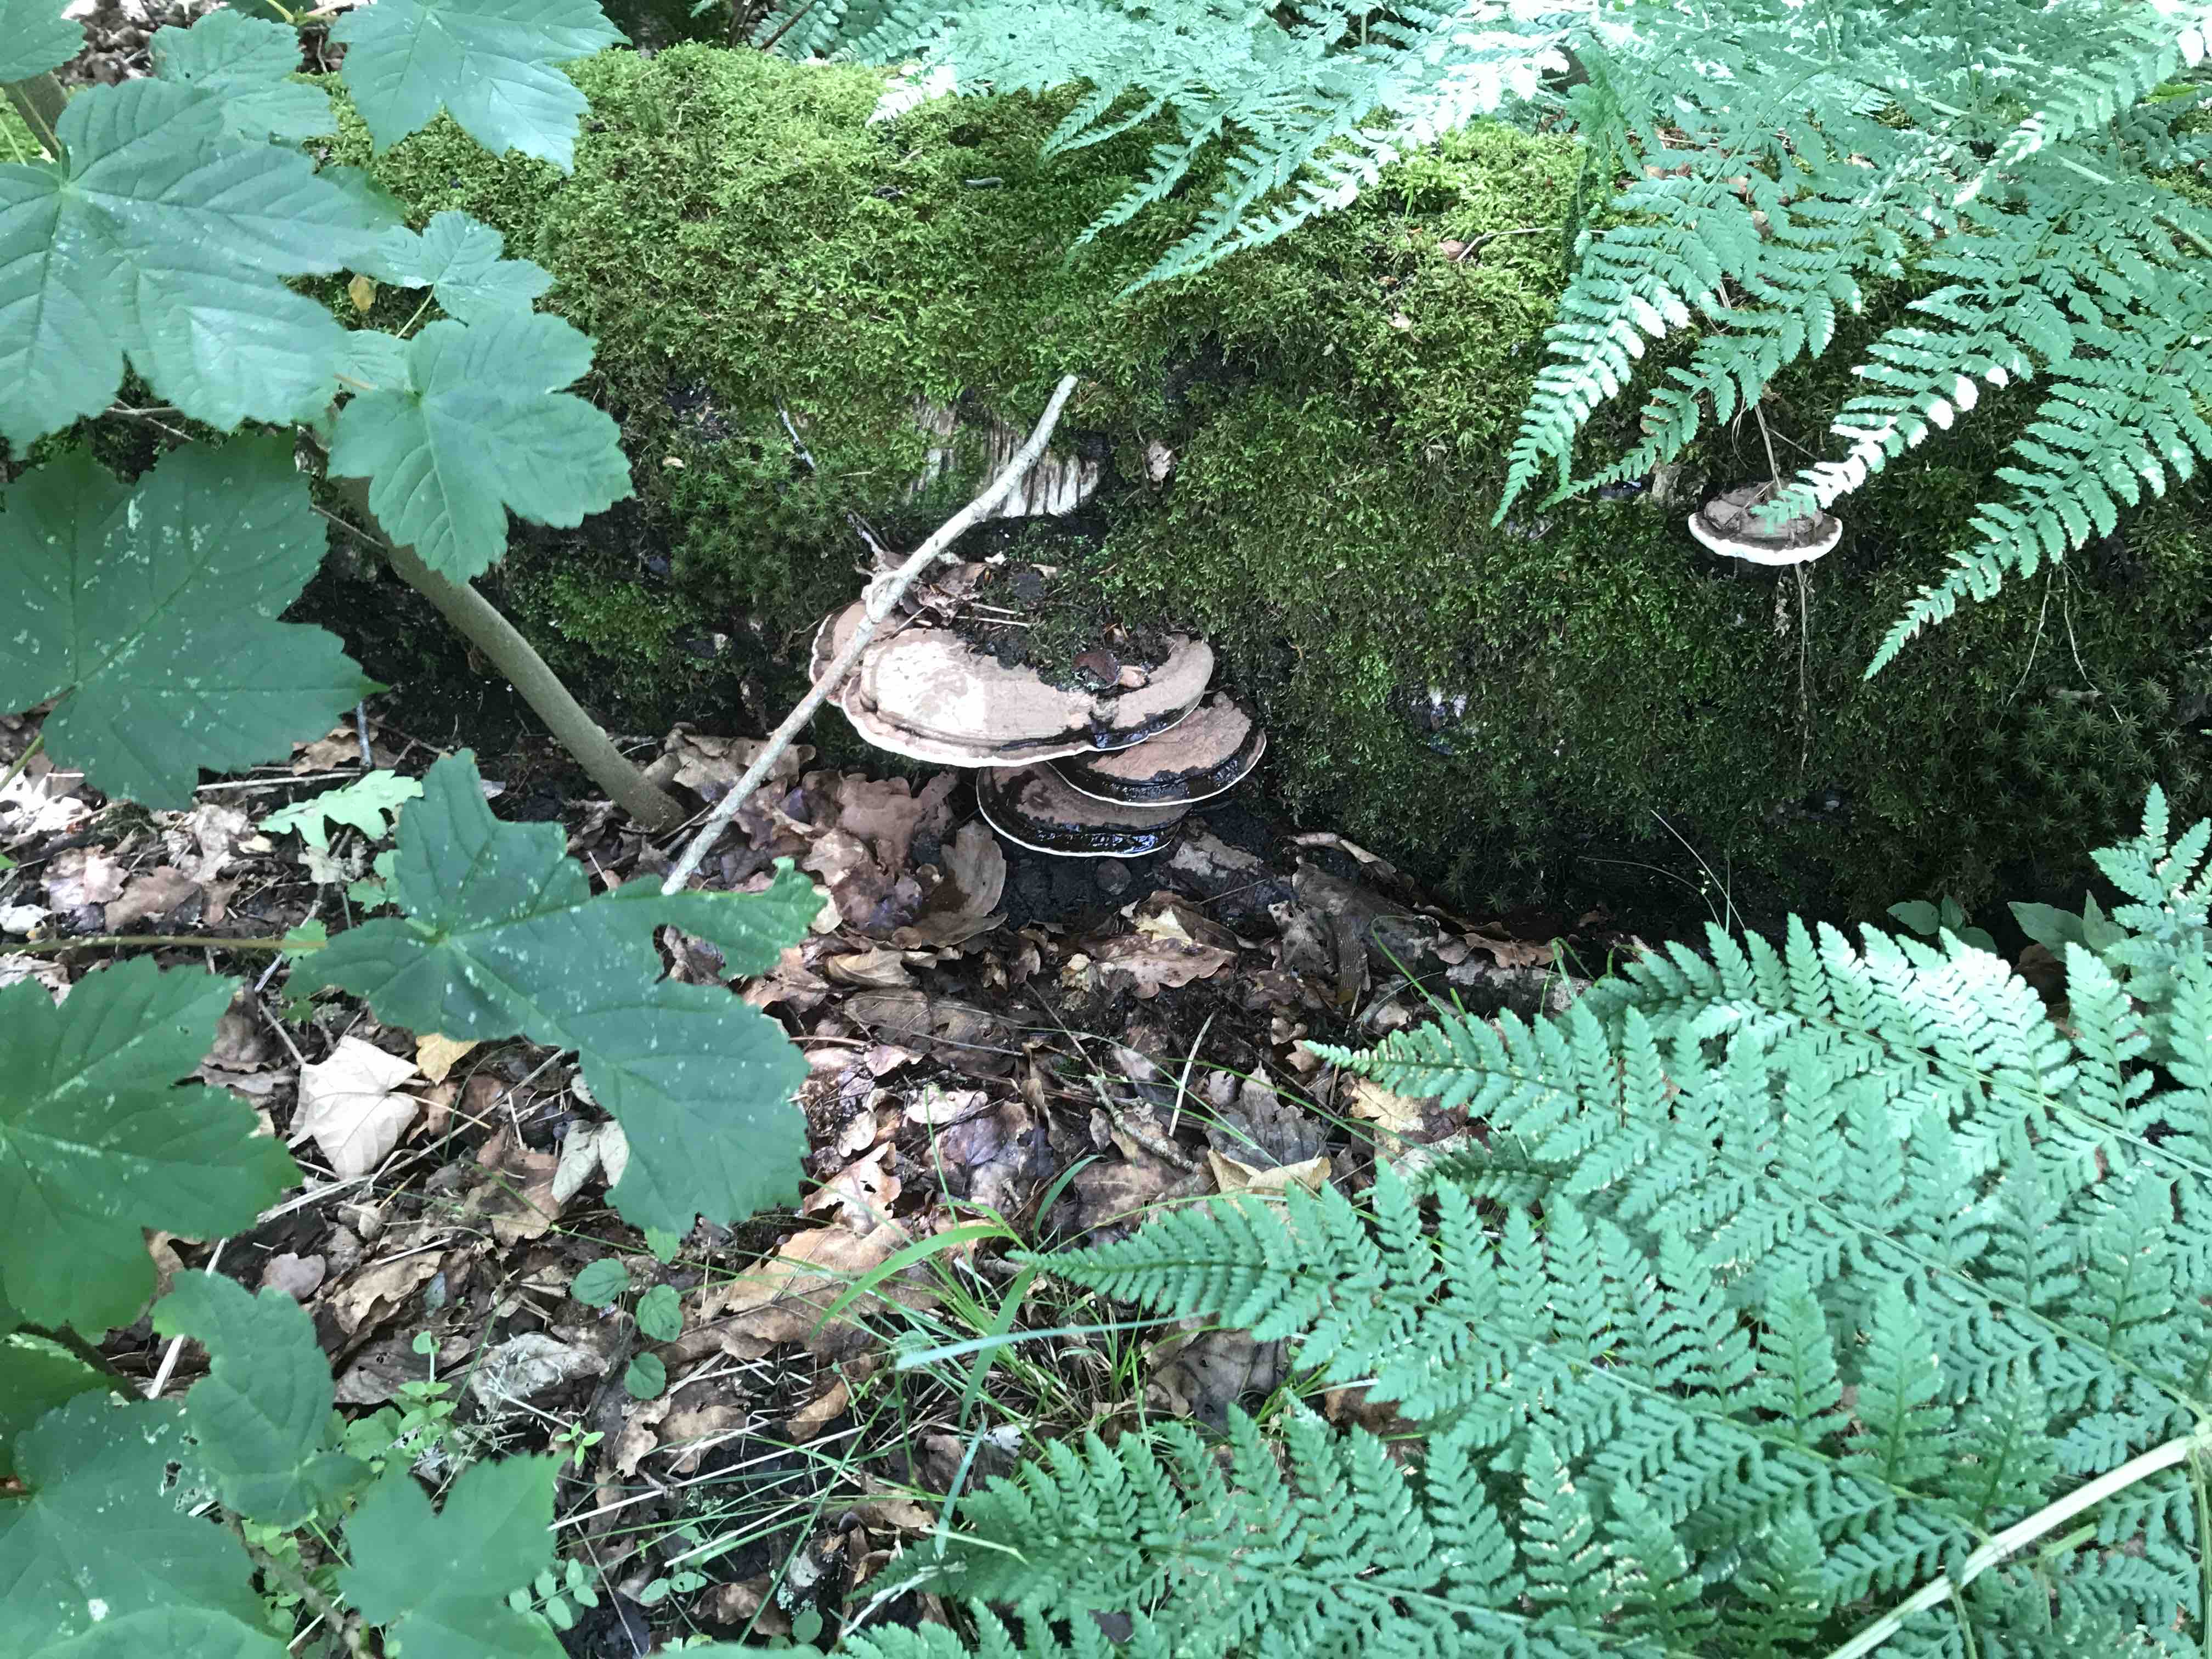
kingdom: Fungi
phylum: Basidiomycota
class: Agaricomycetes
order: Polyporales
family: Polyporaceae
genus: Ganoderma
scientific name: Ganoderma applanatum
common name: flad lakporesvamp
